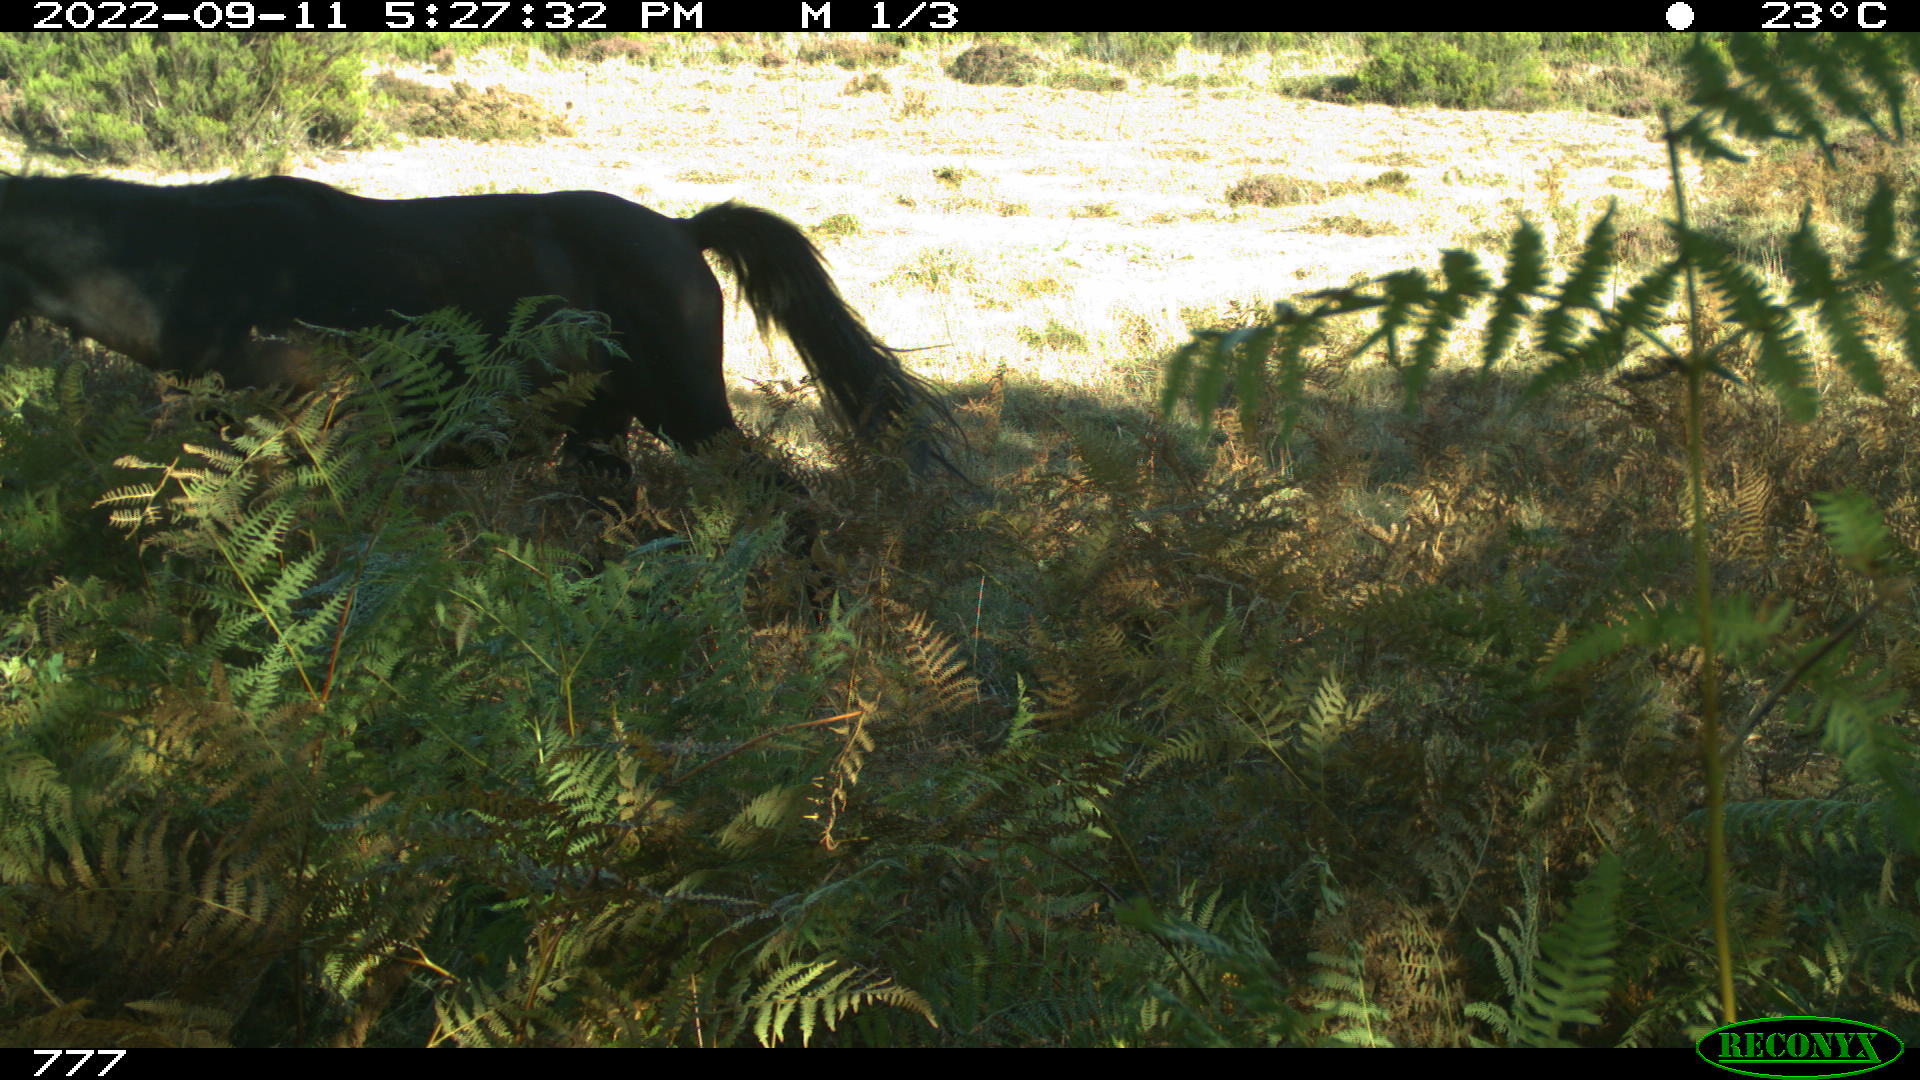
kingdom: Animalia
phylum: Chordata
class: Mammalia
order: Perissodactyla
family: Equidae
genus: Equus
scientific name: Equus caballus
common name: Horse
